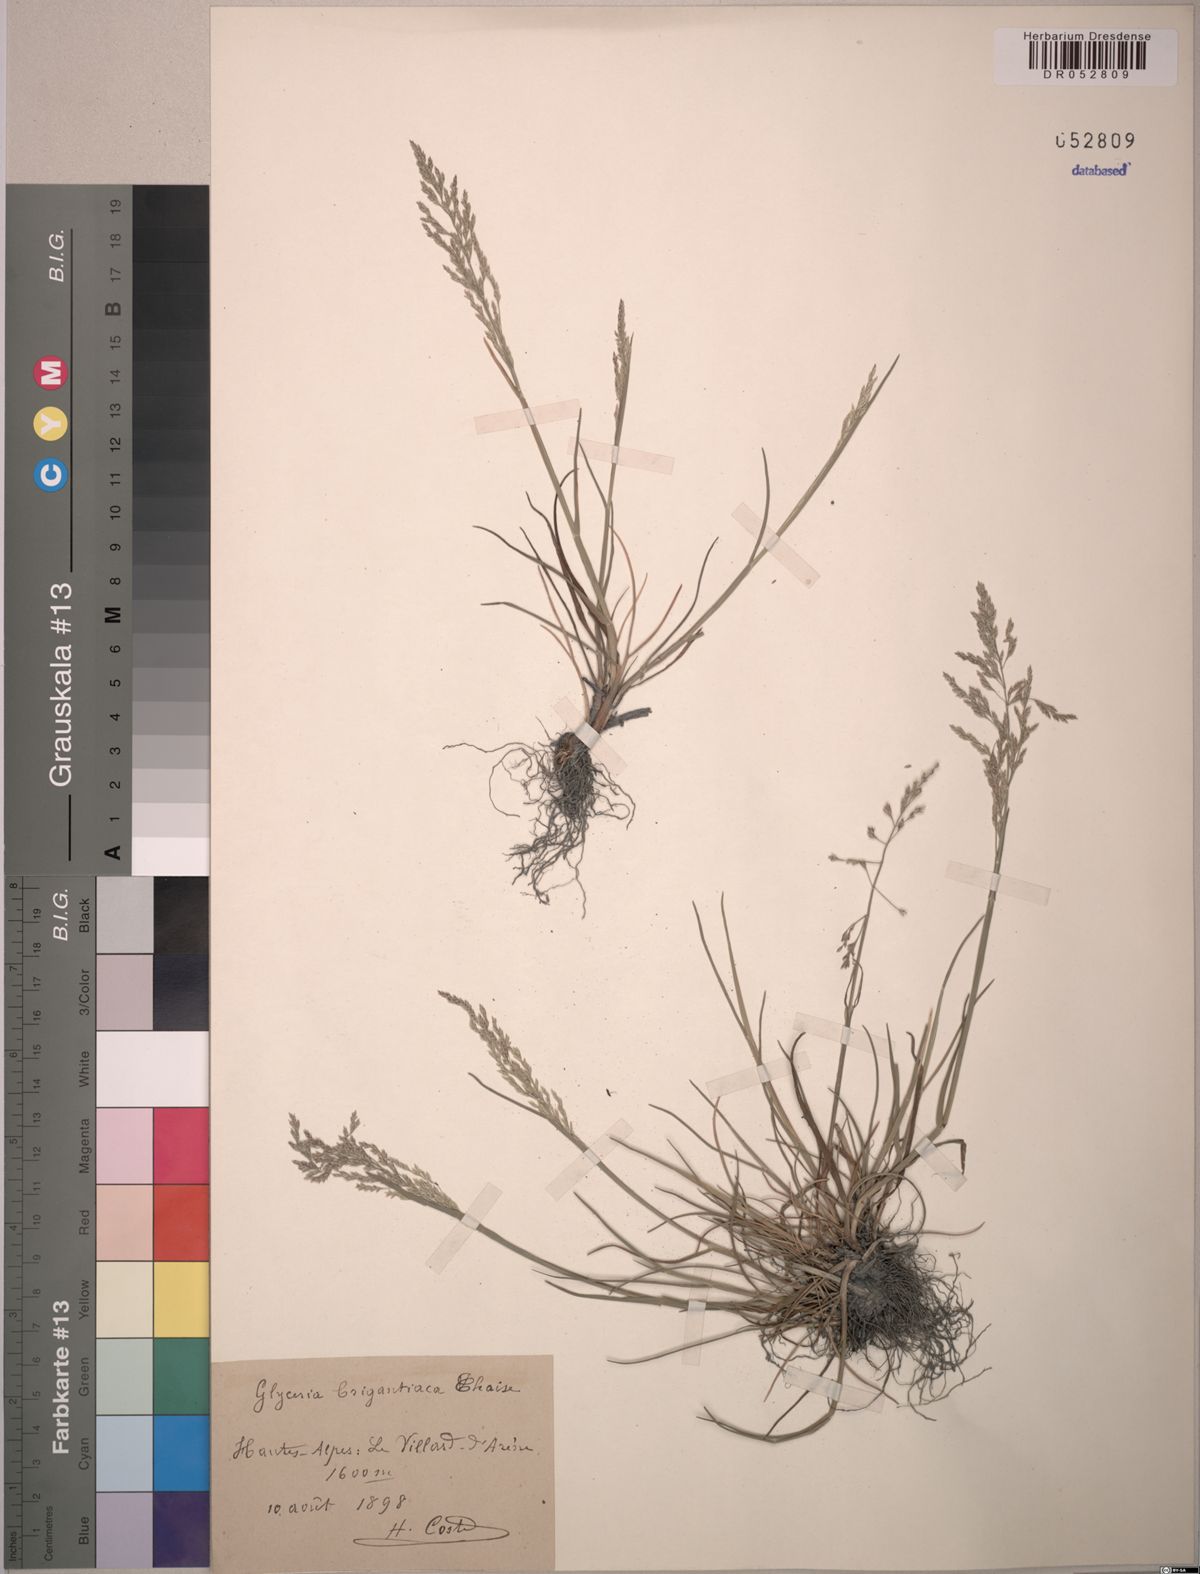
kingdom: Plantae
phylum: Tracheophyta
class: Liliopsida
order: Poales
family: Poaceae
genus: Glyceria
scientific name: Glyceria
